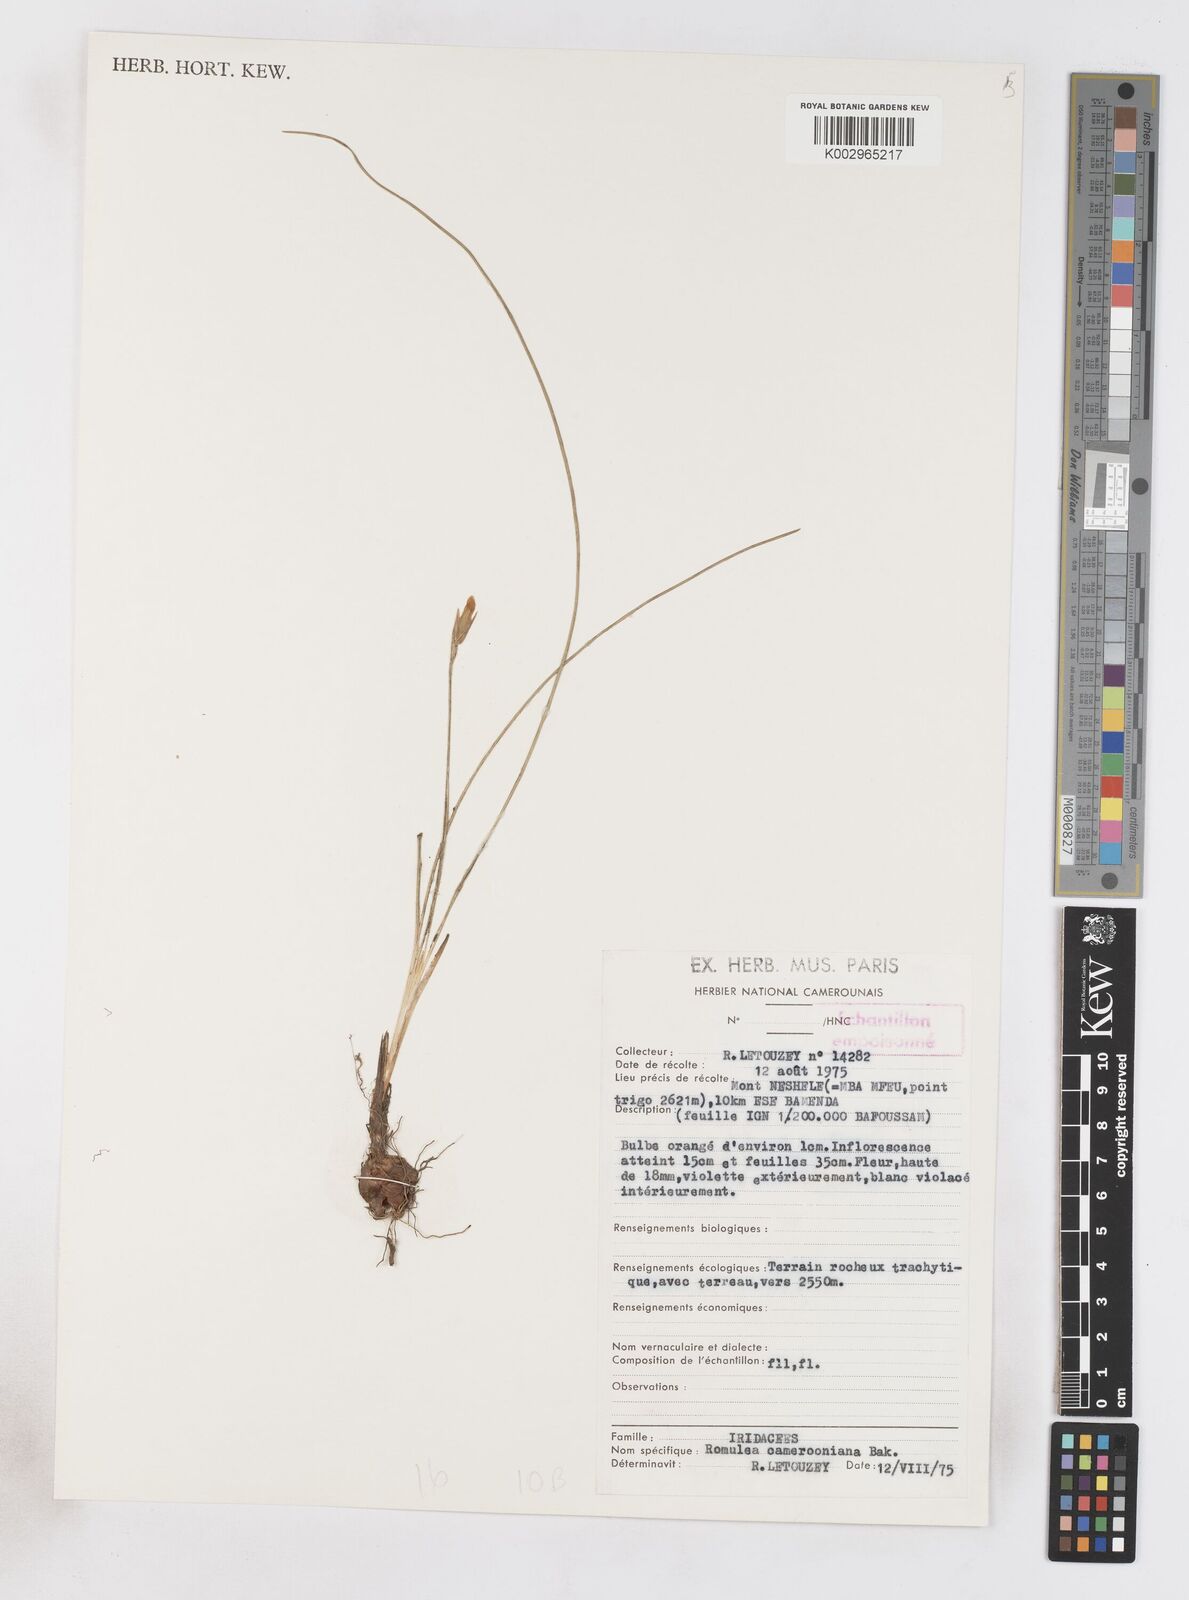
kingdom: Plantae
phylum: Tracheophyta
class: Liliopsida
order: Asparagales
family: Iridaceae
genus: Romulea
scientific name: Romulea camerooniana
